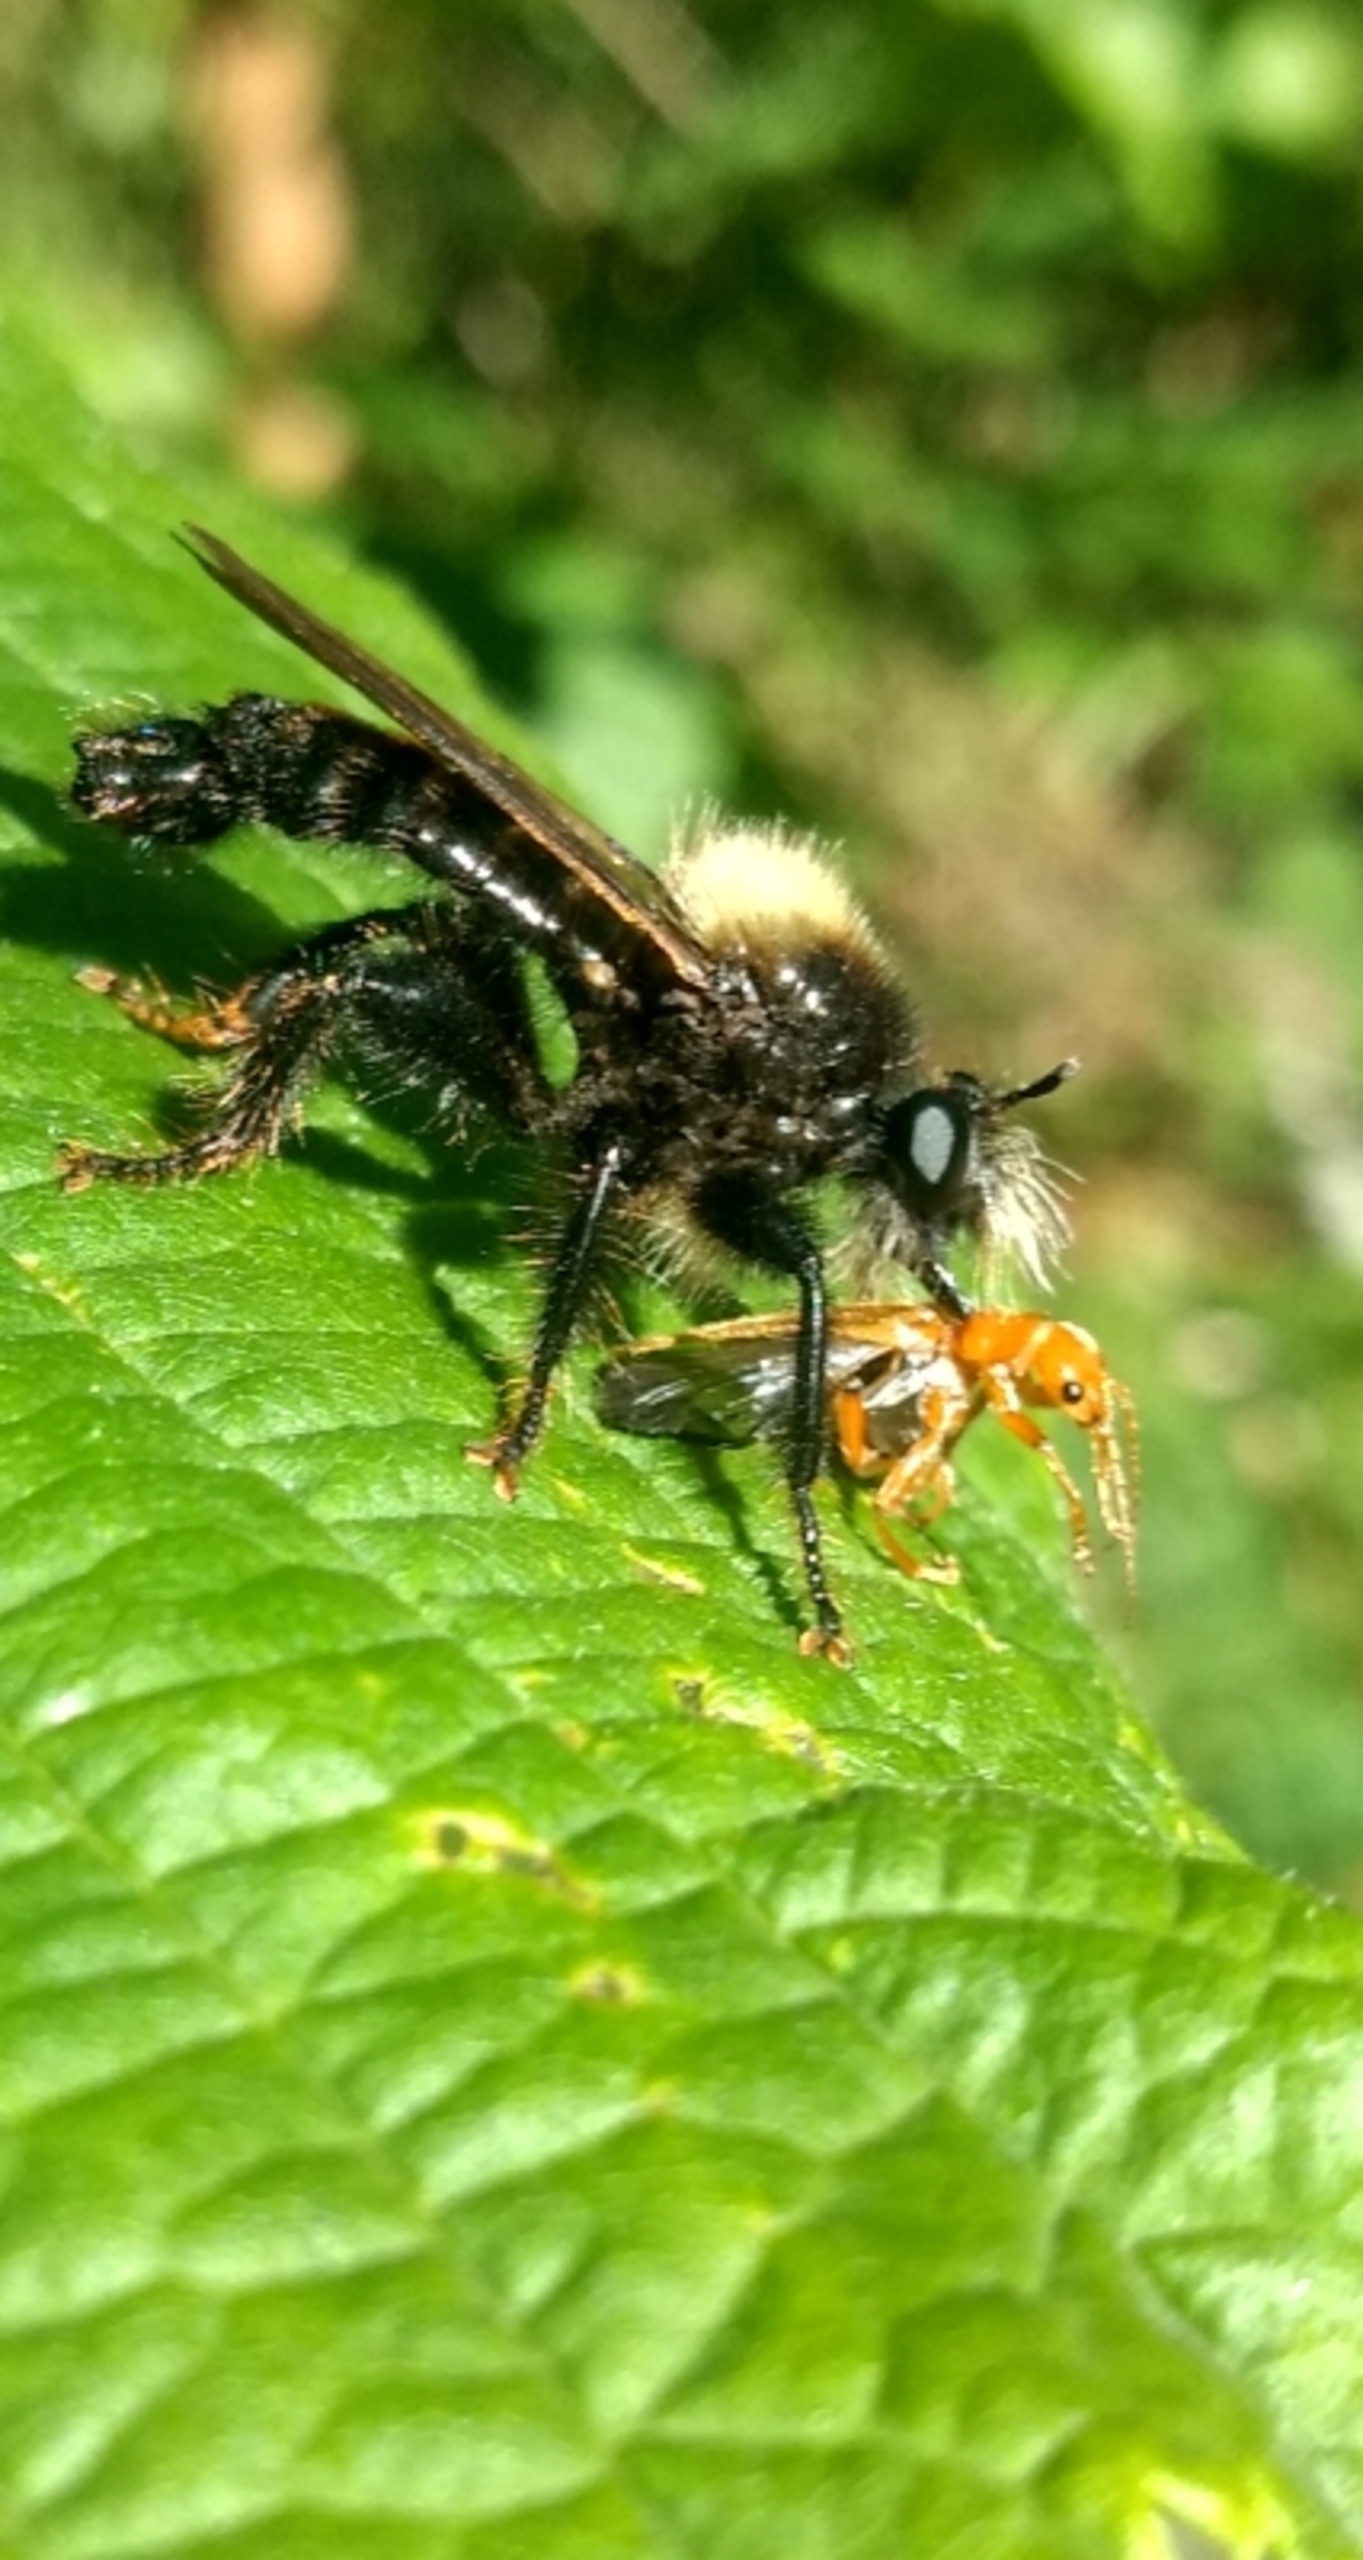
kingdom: Animalia
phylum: Arthropoda
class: Insecta
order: Diptera
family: Asilidae
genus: Laphria
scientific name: Laphria ephippium
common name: Sort vedrovflue
